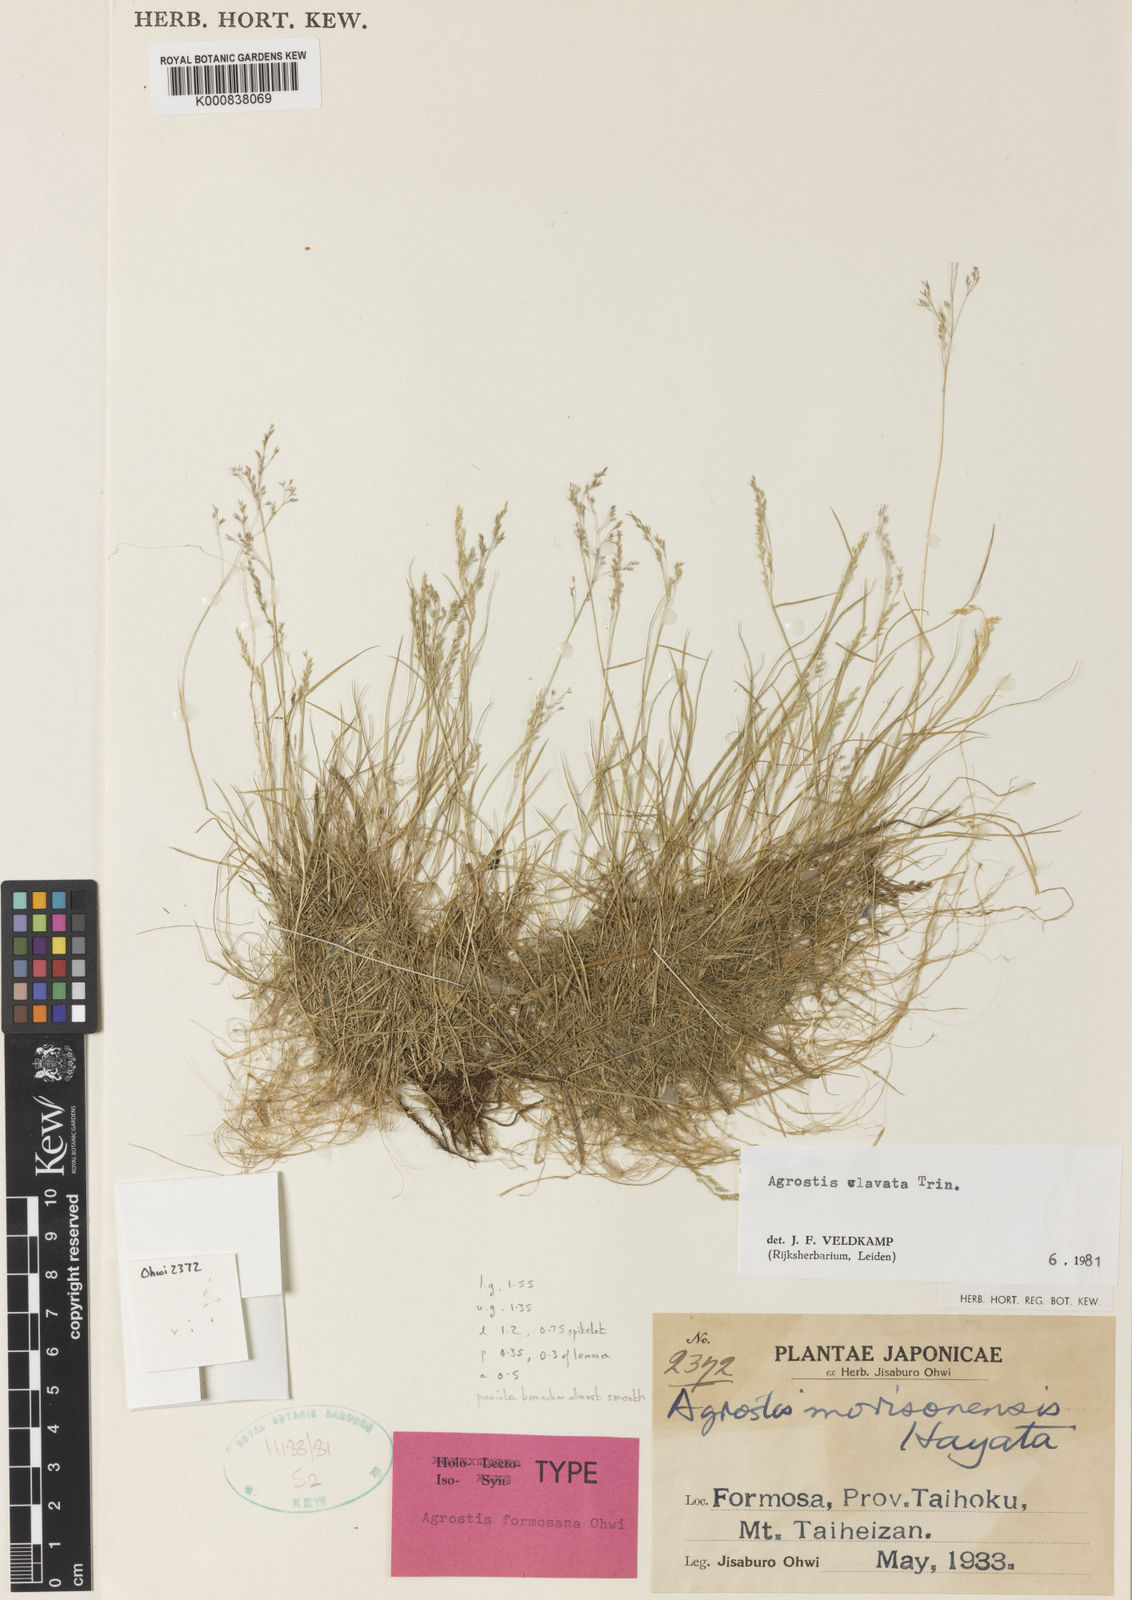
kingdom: Plantae
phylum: Tracheophyta
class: Liliopsida
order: Poales
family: Poaceae
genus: Agrostis
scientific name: Agrostis clavata
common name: Clavate bent
